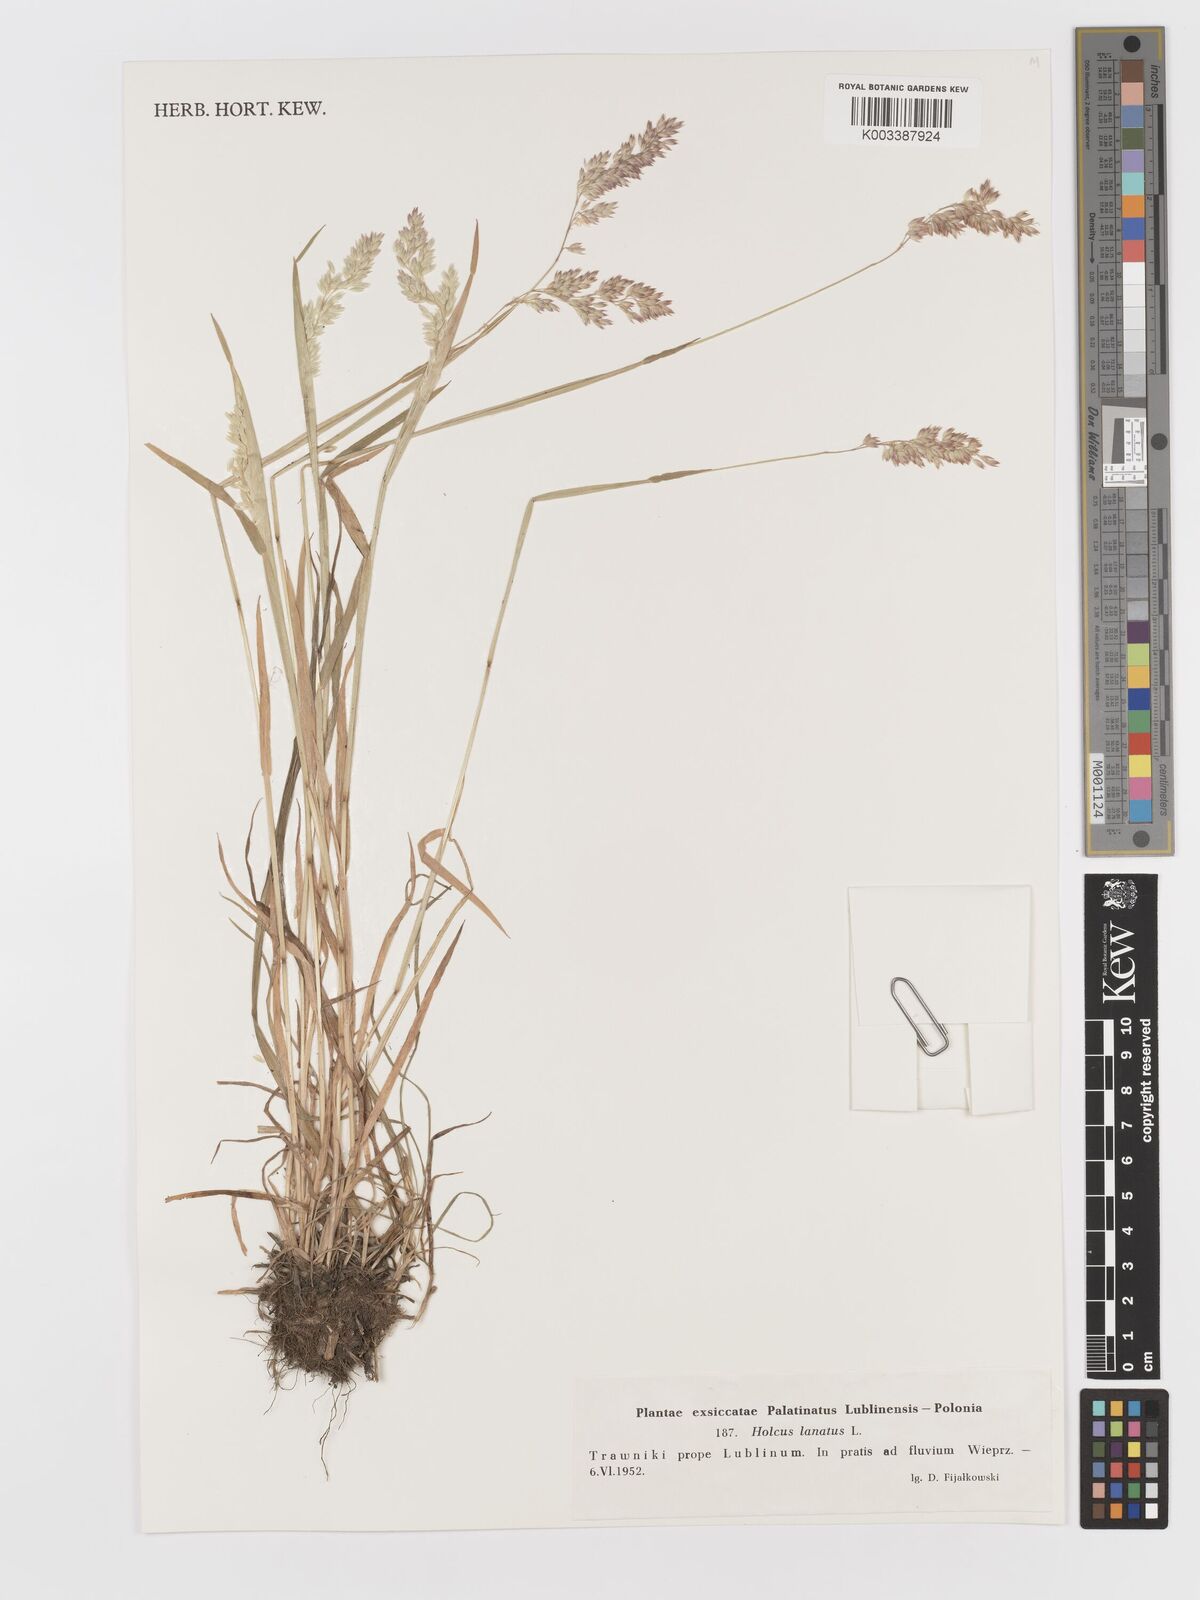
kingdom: Plantae
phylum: Tracheophyta
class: Liliopsida
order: Poales
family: Poaceae
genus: Holcus
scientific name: Holcus lanatus
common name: Yorkshire-fog
